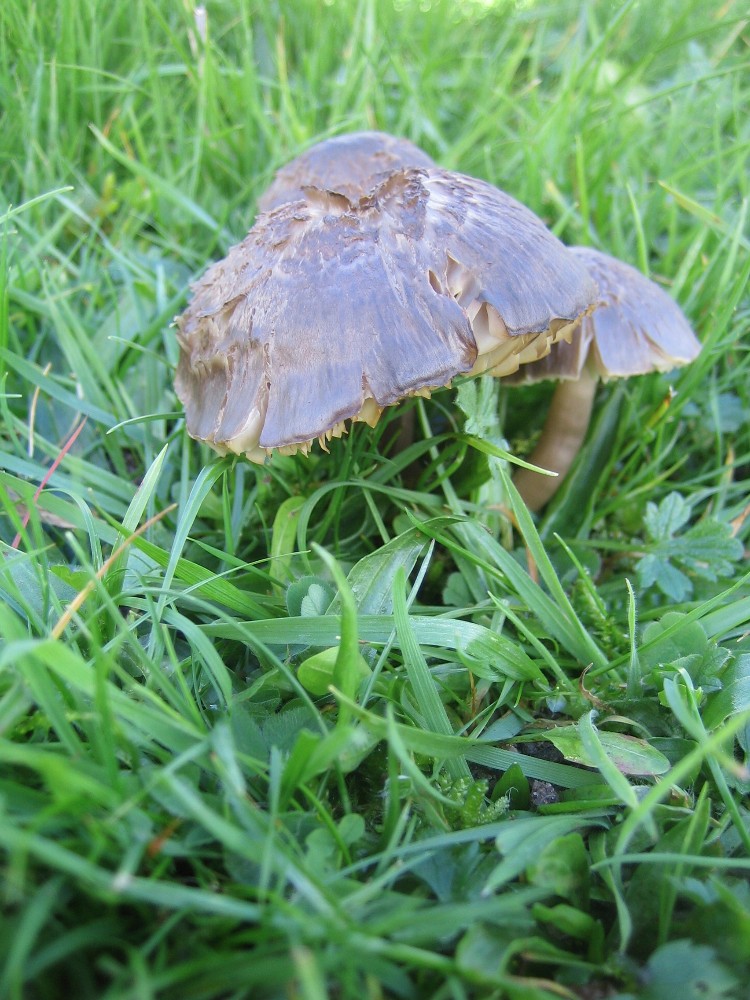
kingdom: Fungi
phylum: Basidiomycota
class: Agaricomycetes
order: Agaricales
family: Hygrophoraceae
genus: Neohygrocybe
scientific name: Neohygrocybe nitrata
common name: stinkende vokshat
